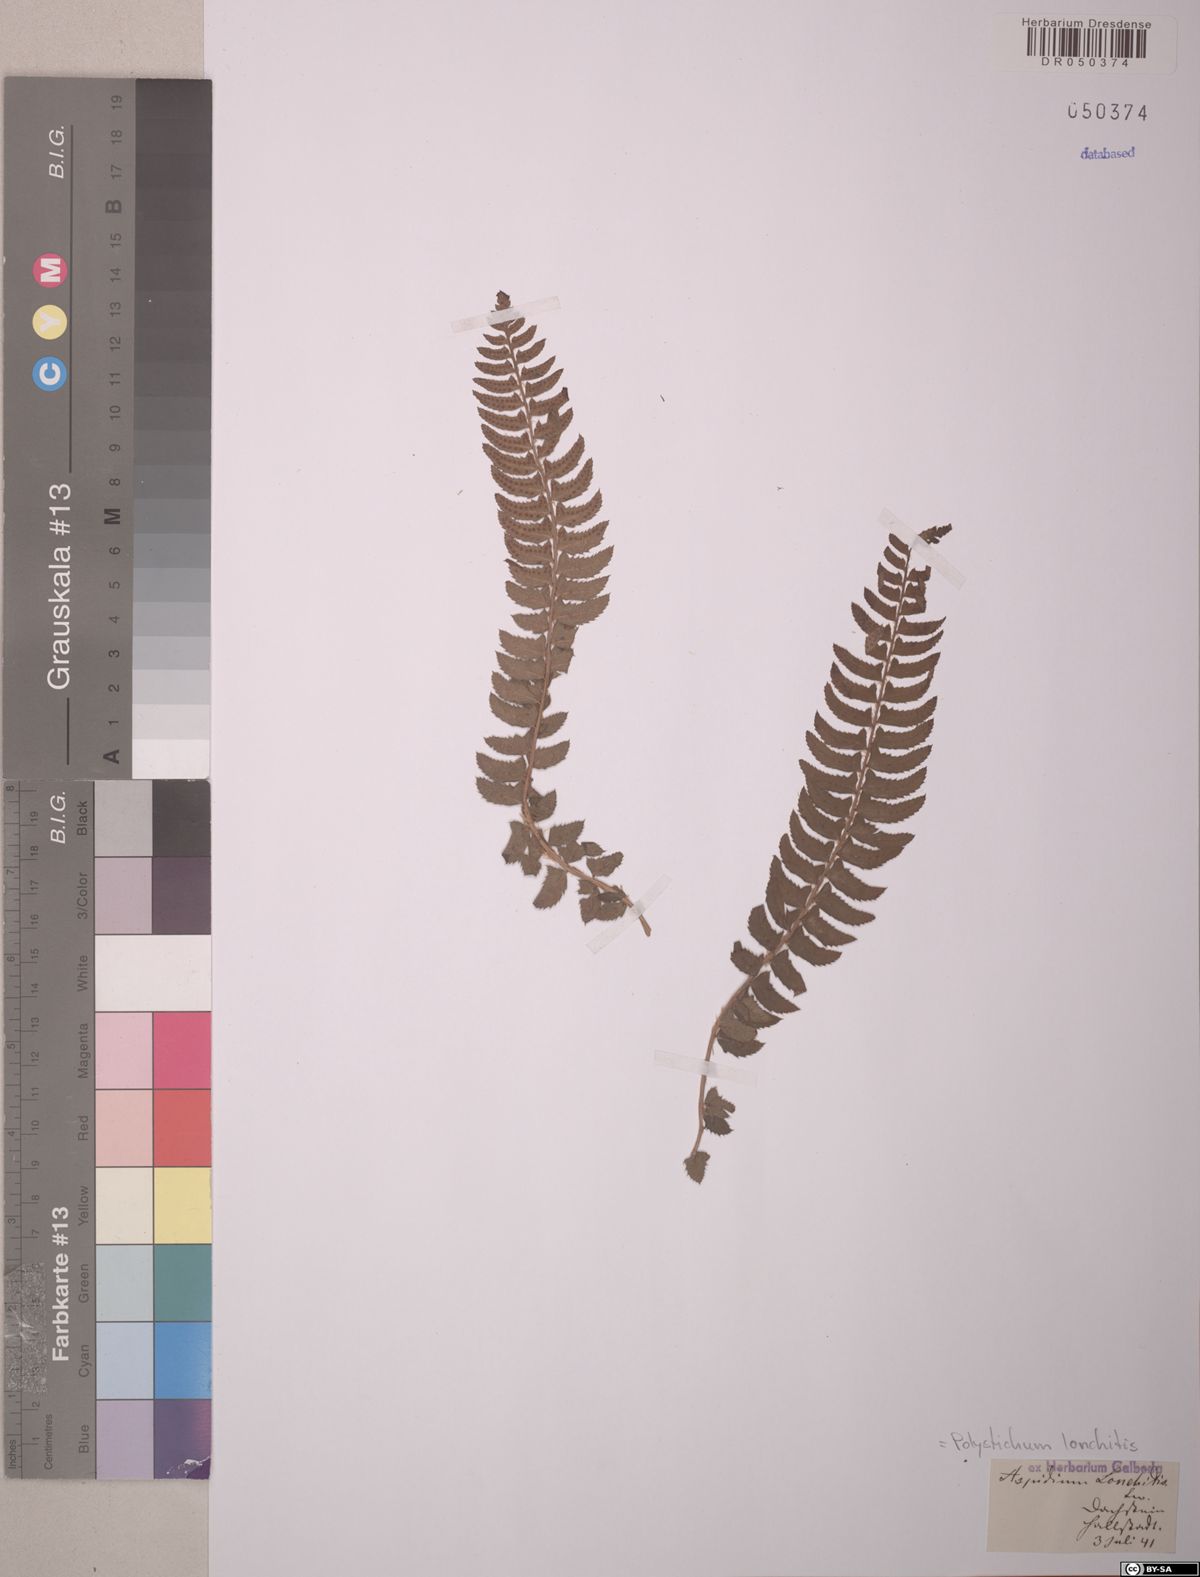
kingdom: Plantae
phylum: Tracheophyta
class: Polypodiopsida
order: Polypodiales
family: Dryopteridaceae
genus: Polystichum
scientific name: Polystichum lonchitis
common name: Holly fern
